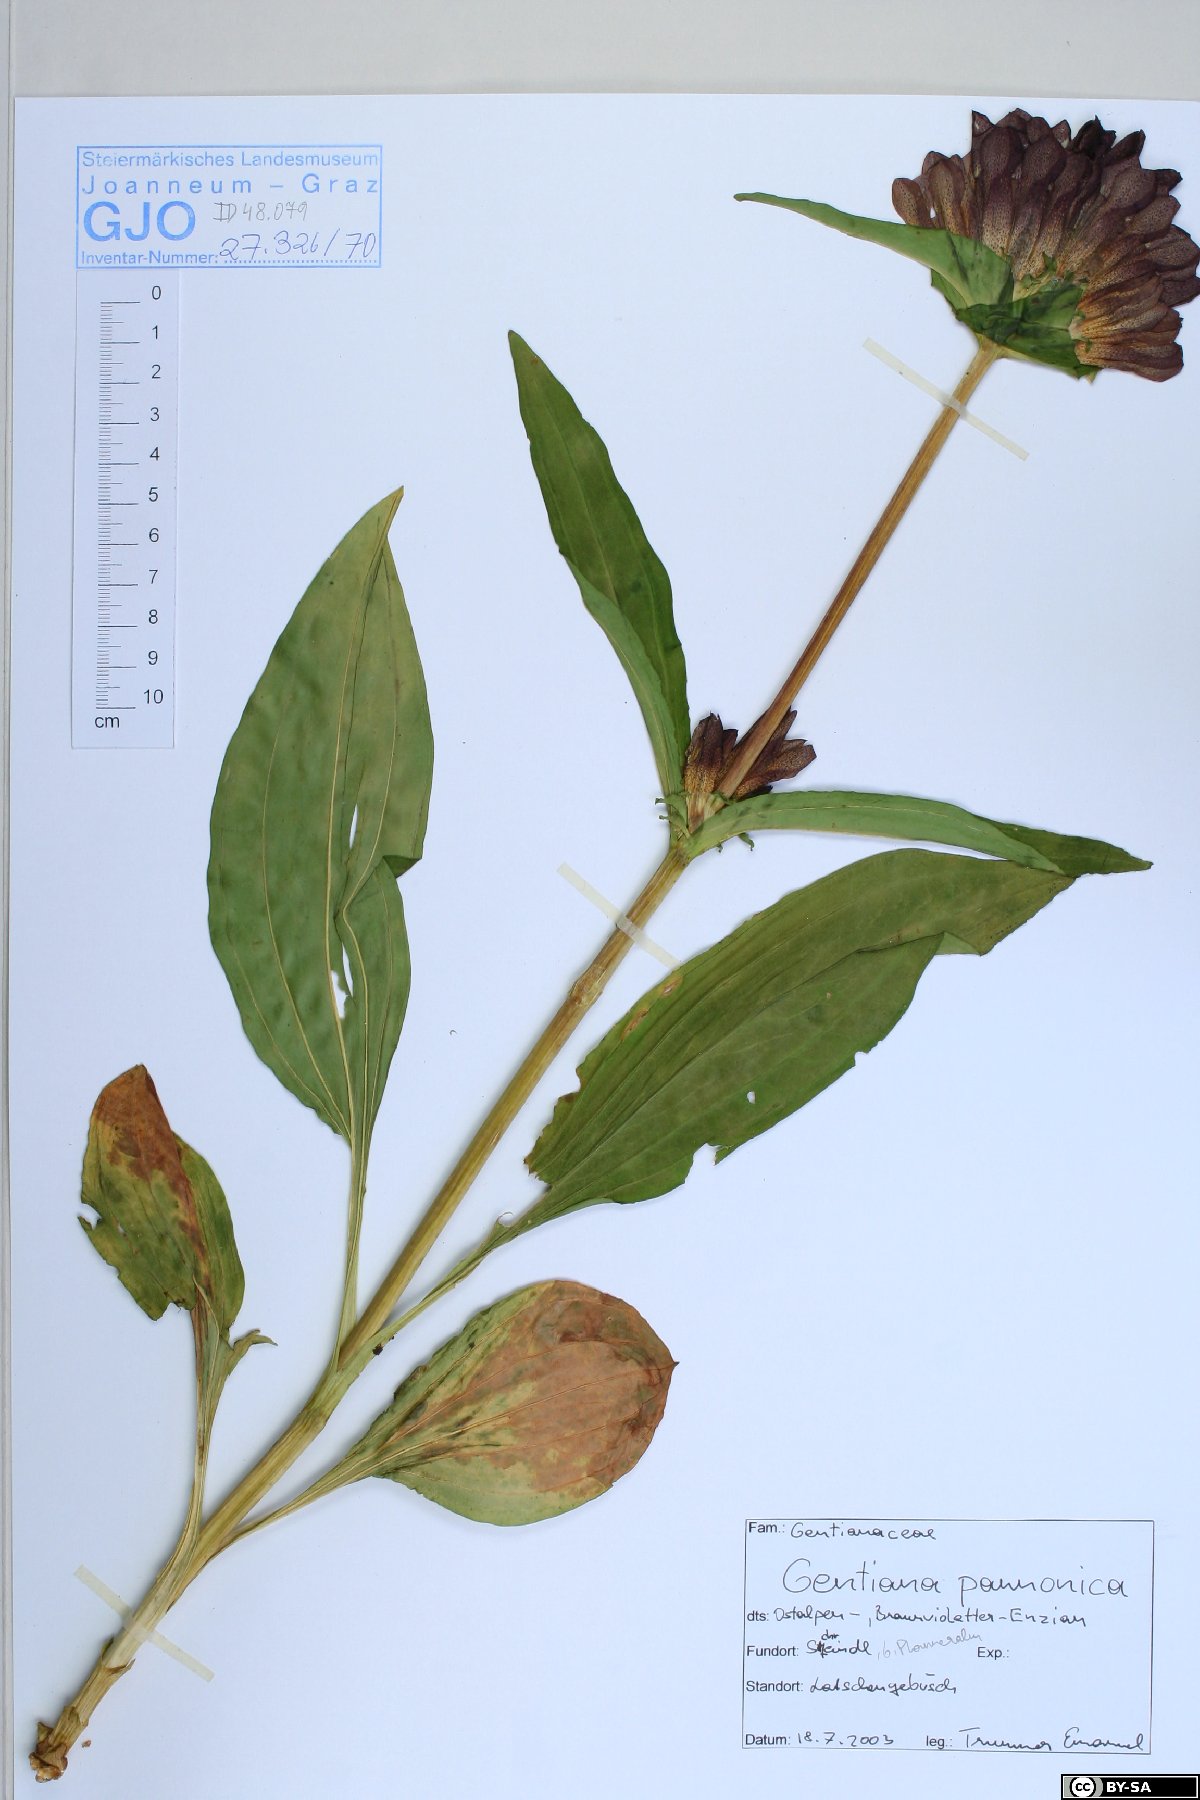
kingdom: Plantae
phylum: Tracheophyta
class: Magnoliopsida
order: Gentianales
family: Gentianaceae
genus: Gentiana
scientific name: Gentiana pannonica
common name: Hungarian gentian
